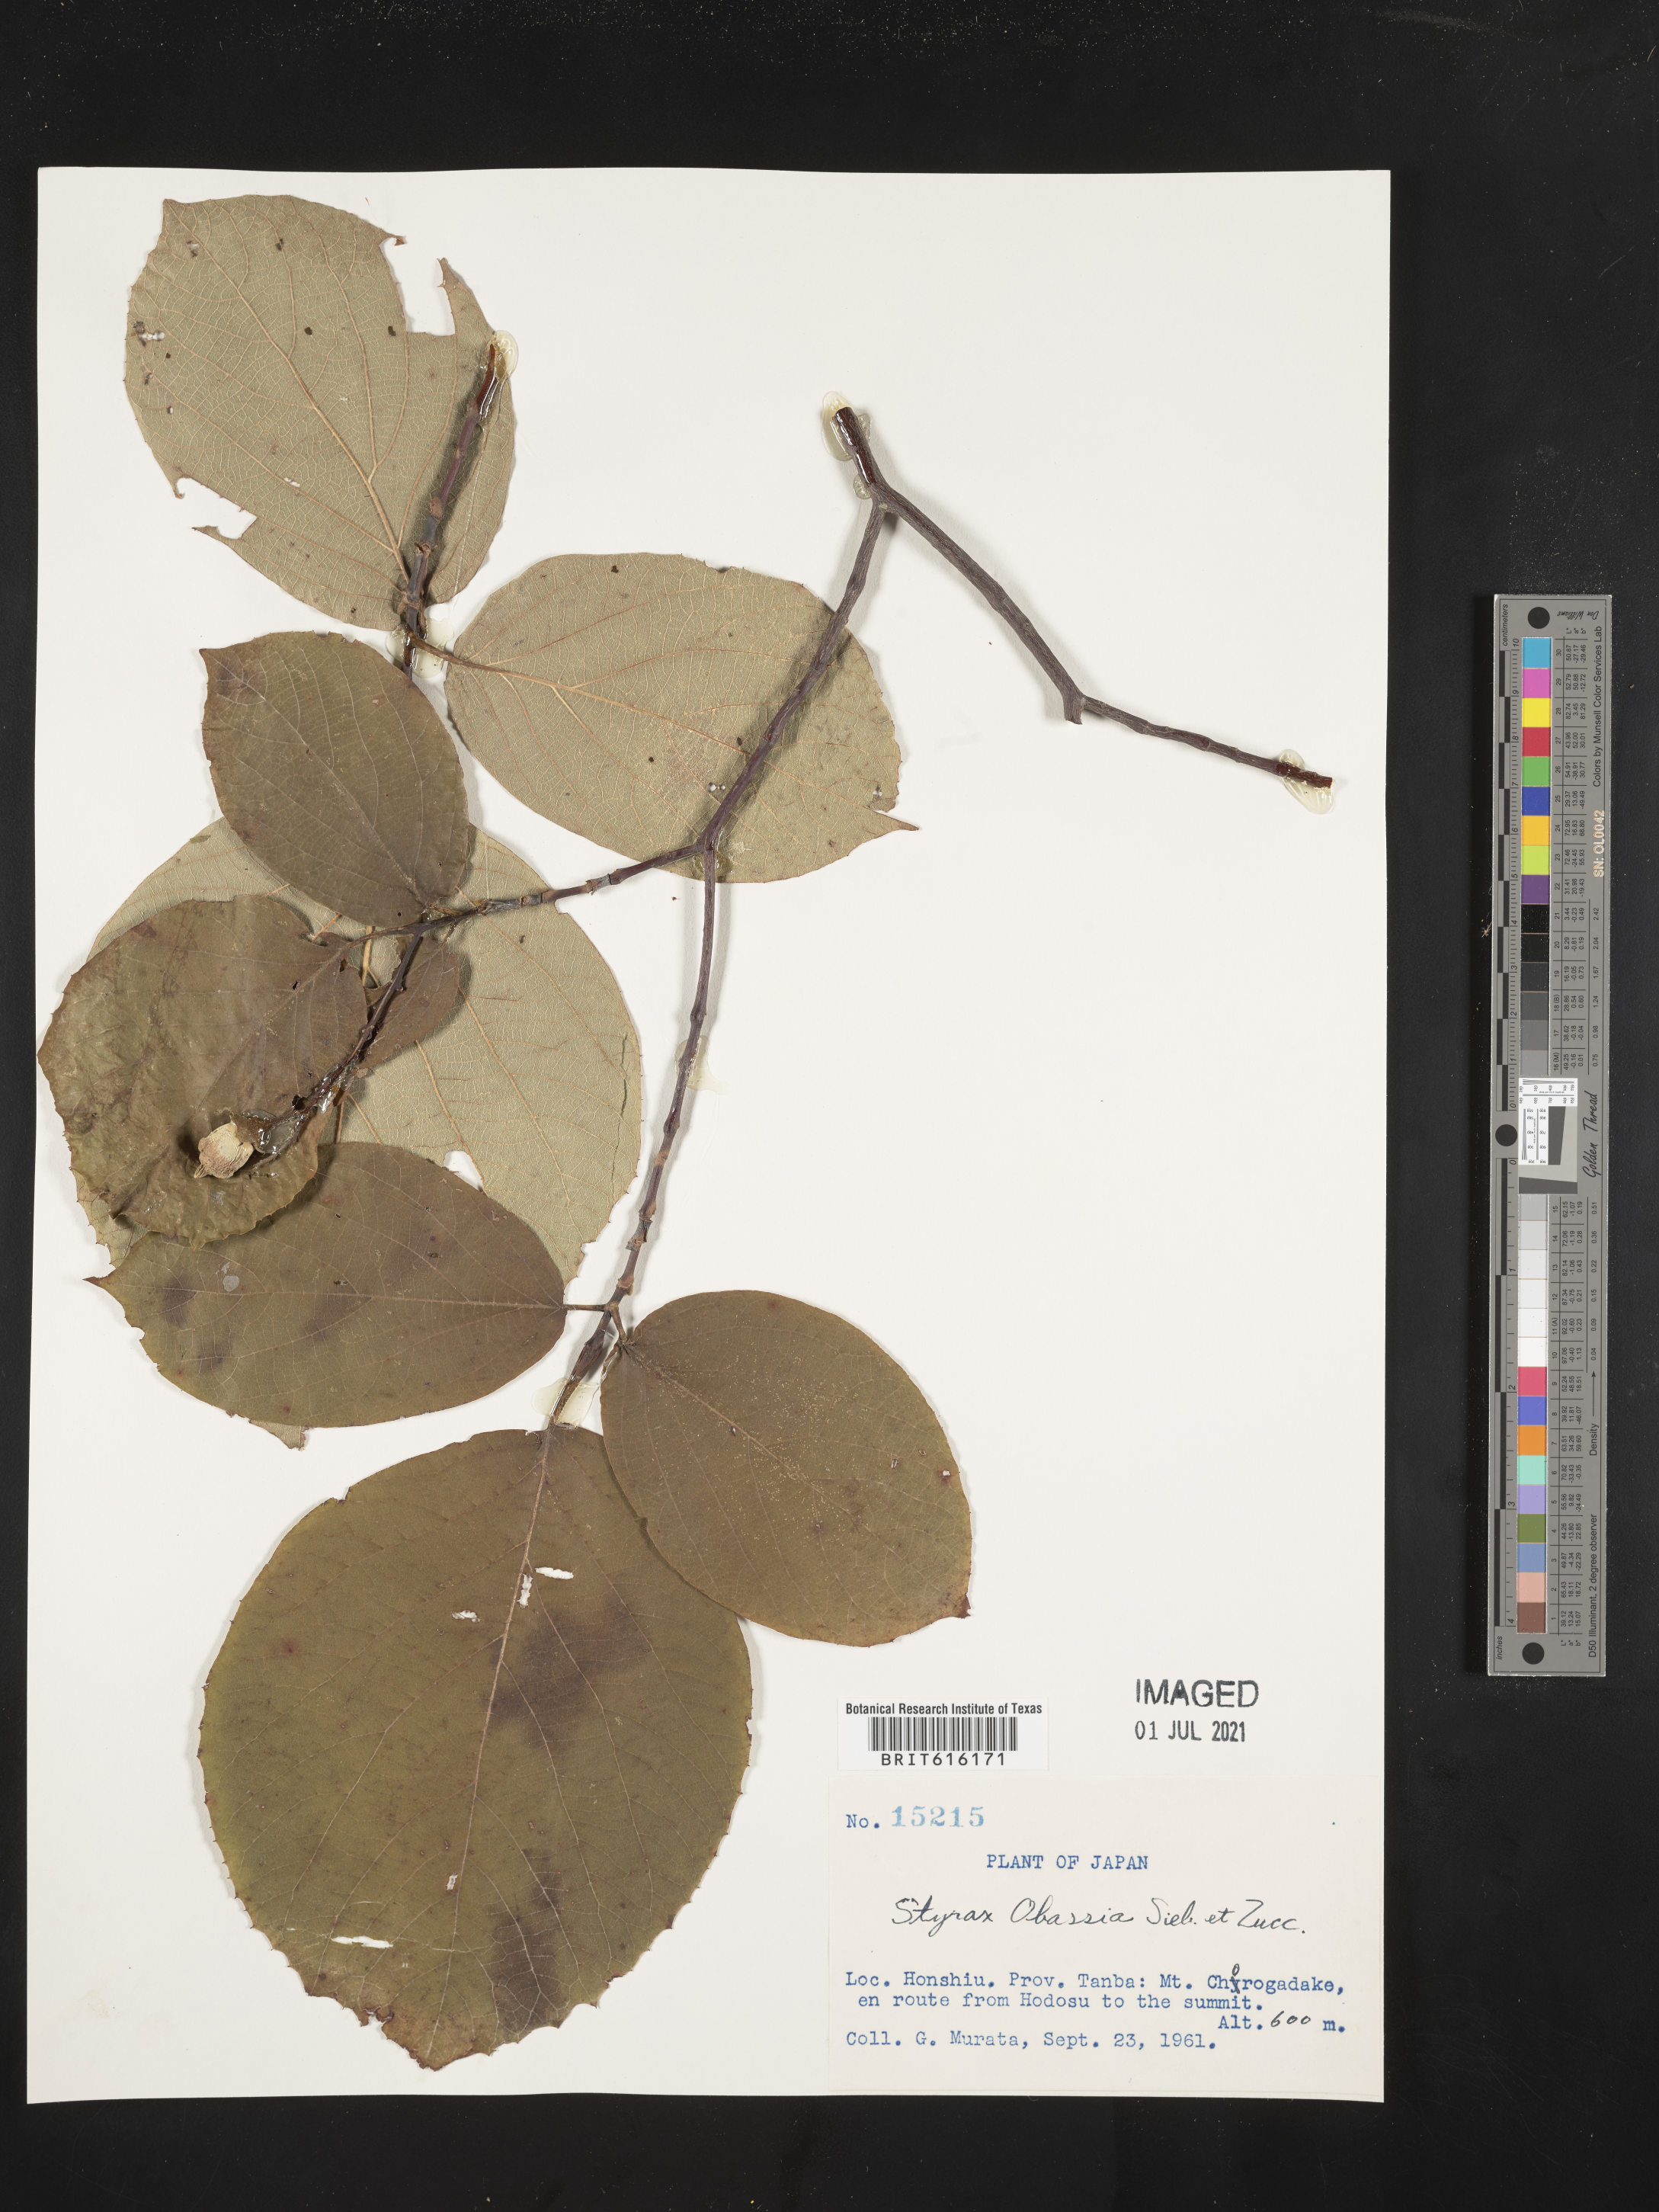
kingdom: Plantae
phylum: Tracheophyta
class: Magnoliopsida
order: Ericales
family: Styracaceae
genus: Styrax
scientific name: Styrax obassia
